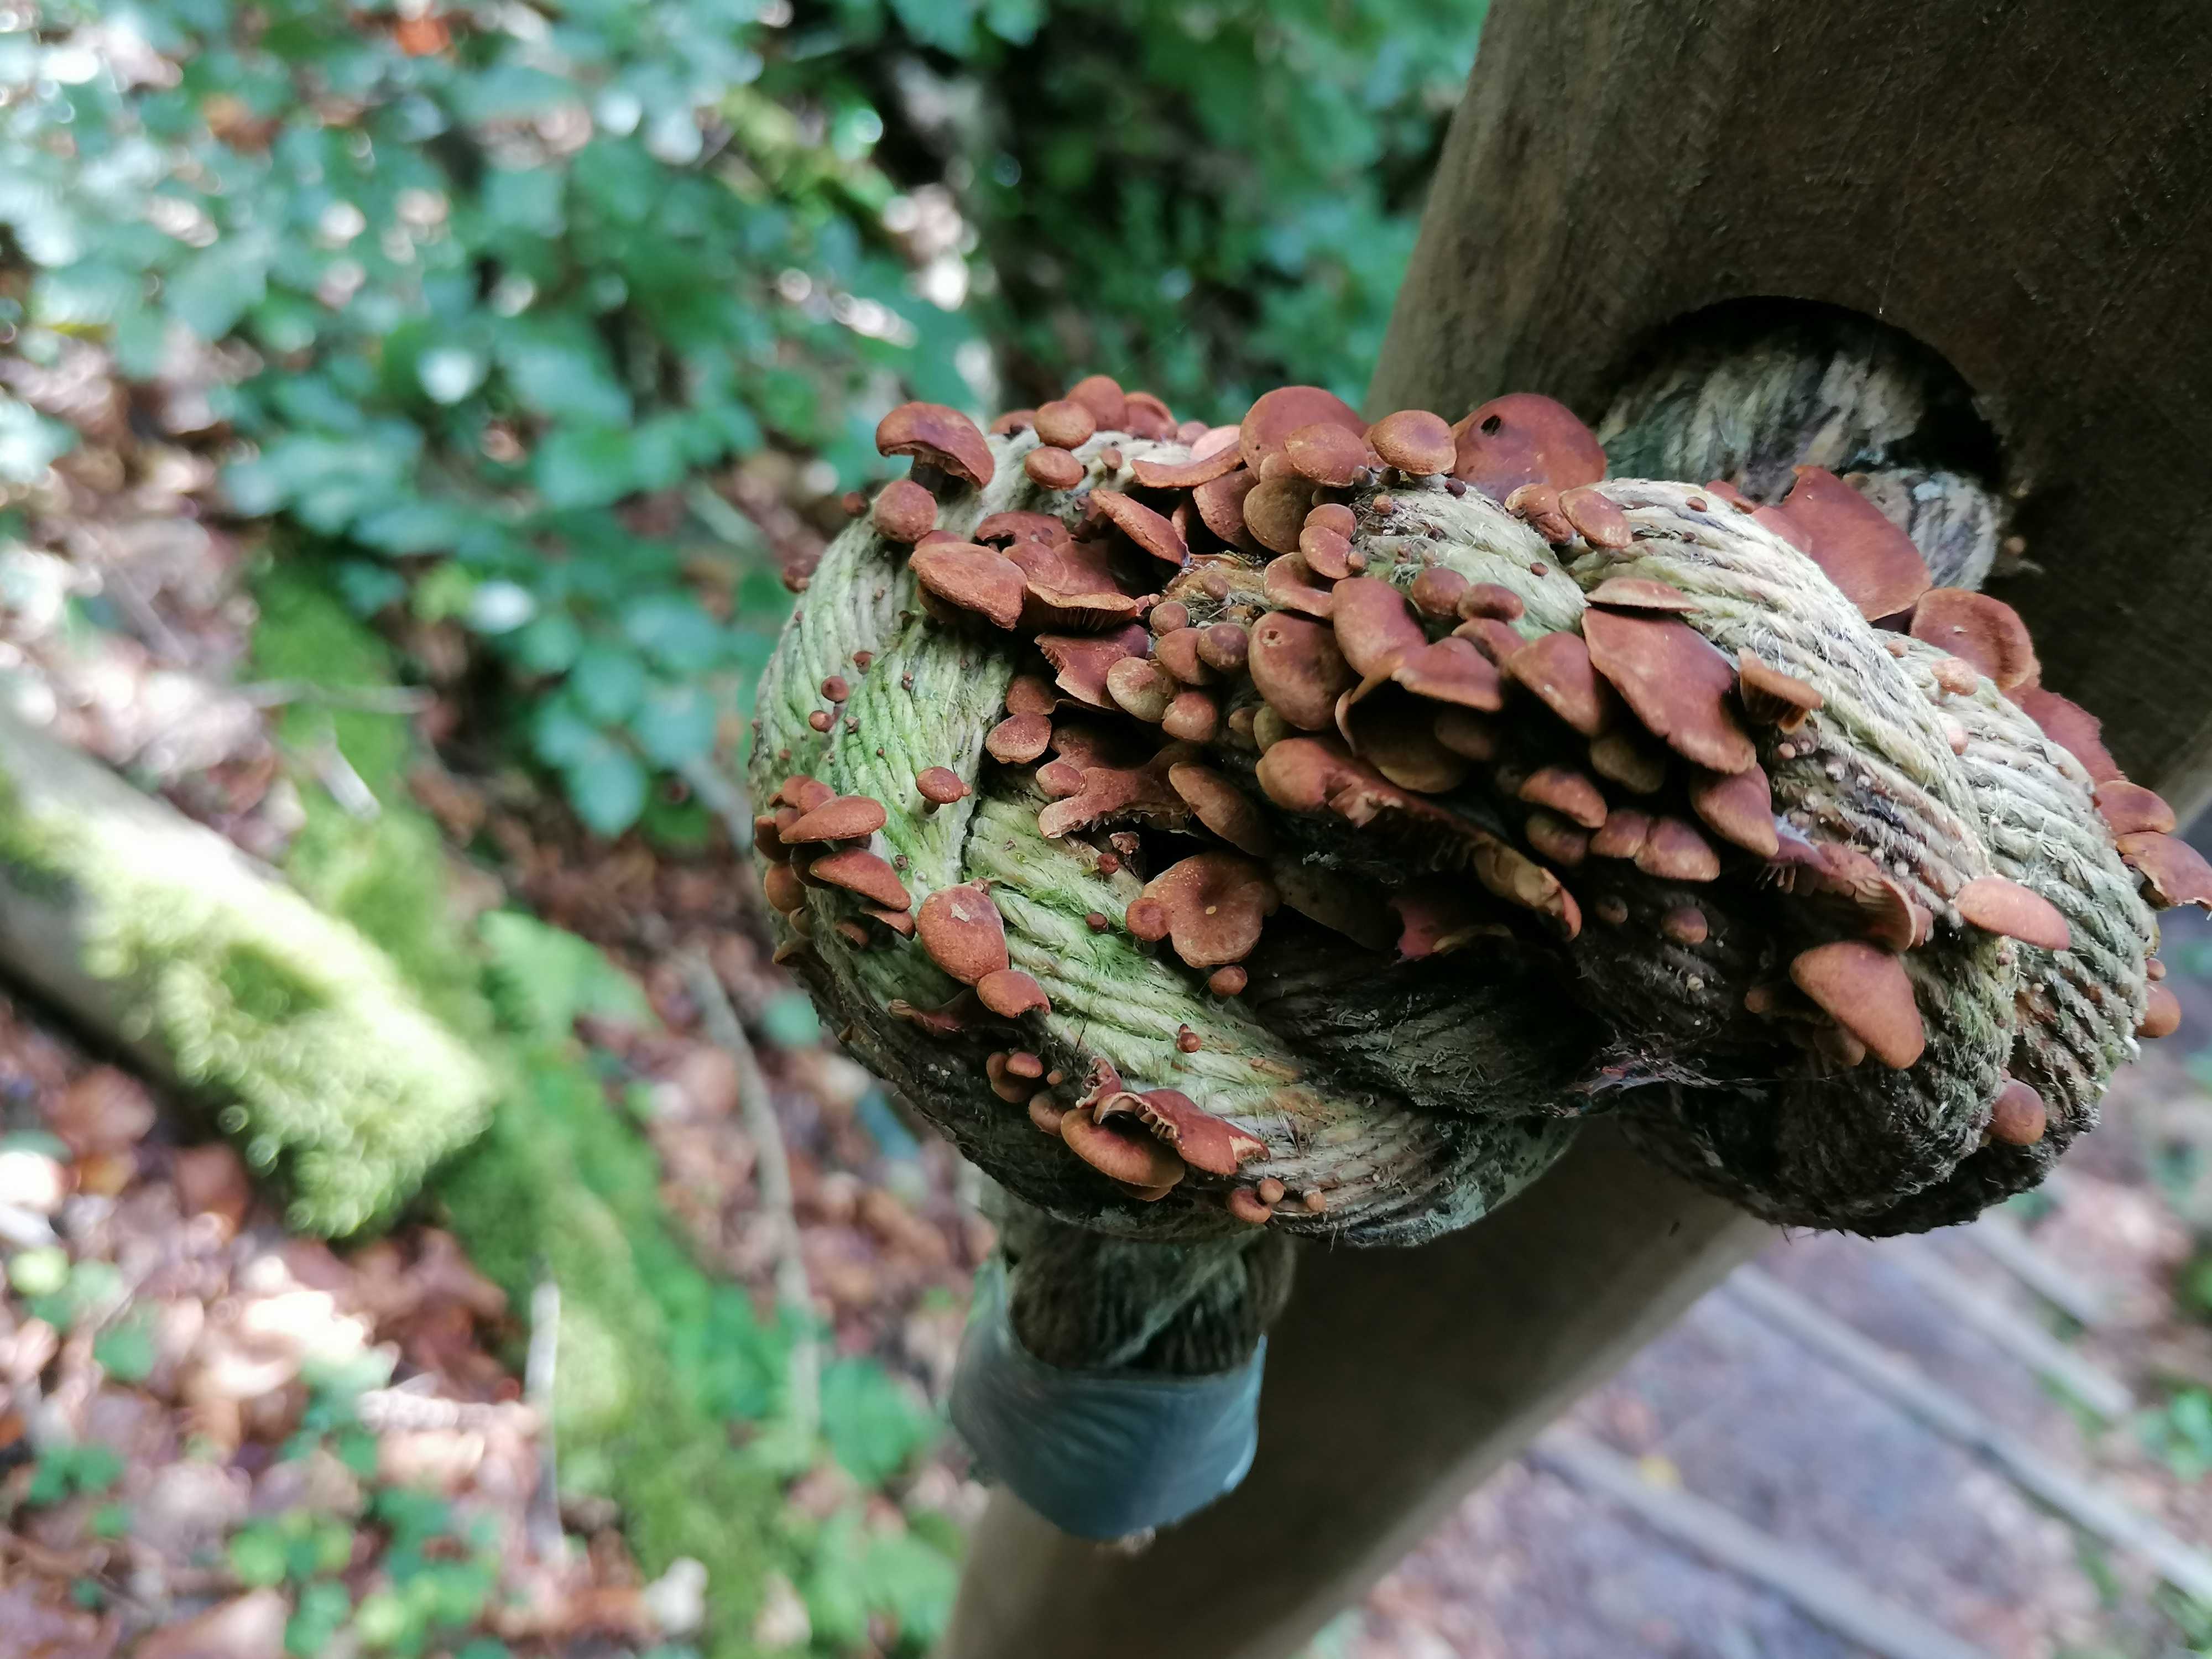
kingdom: Fungi
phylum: Basidiomycota
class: Agaricomycetes
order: Agaricales
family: Strophariaceae
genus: Deconica
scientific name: Deconica horizontalis
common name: ved-stråhat
